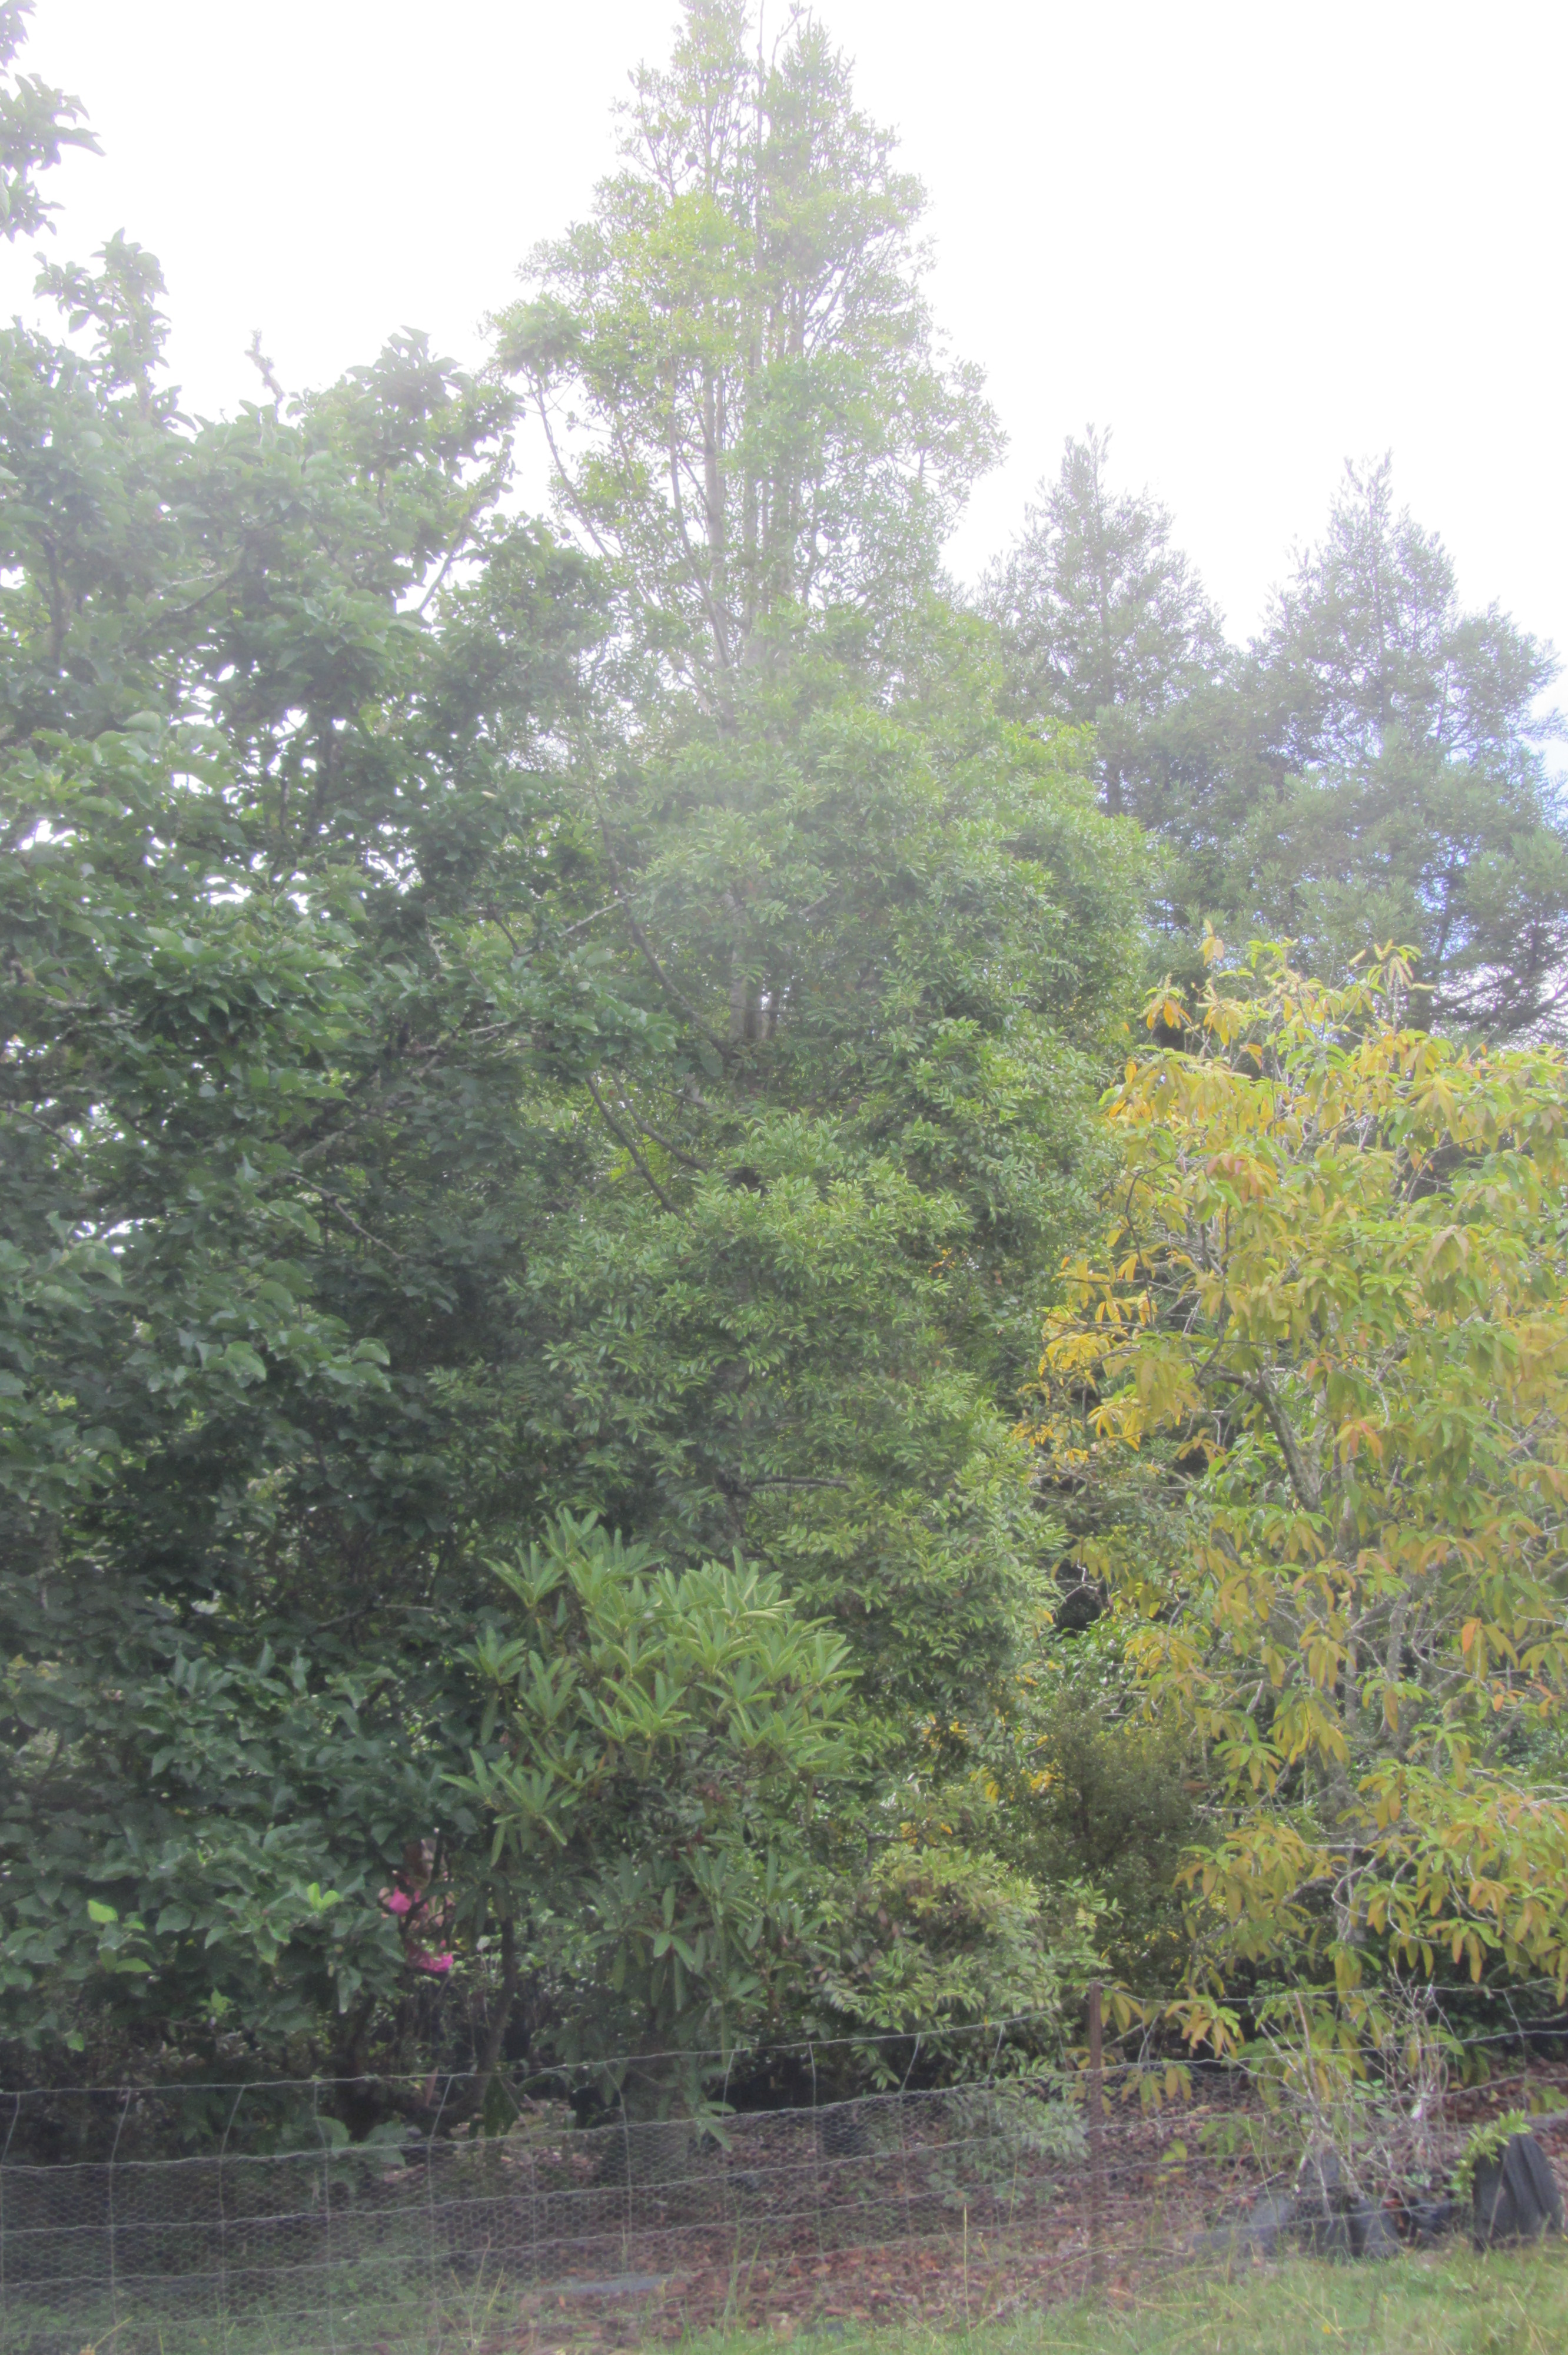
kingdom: Plantae
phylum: Tracheophyta
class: Pinopsida
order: Pinales
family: Araucariaceae
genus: Agathis
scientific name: Agathis kinabaluensis
